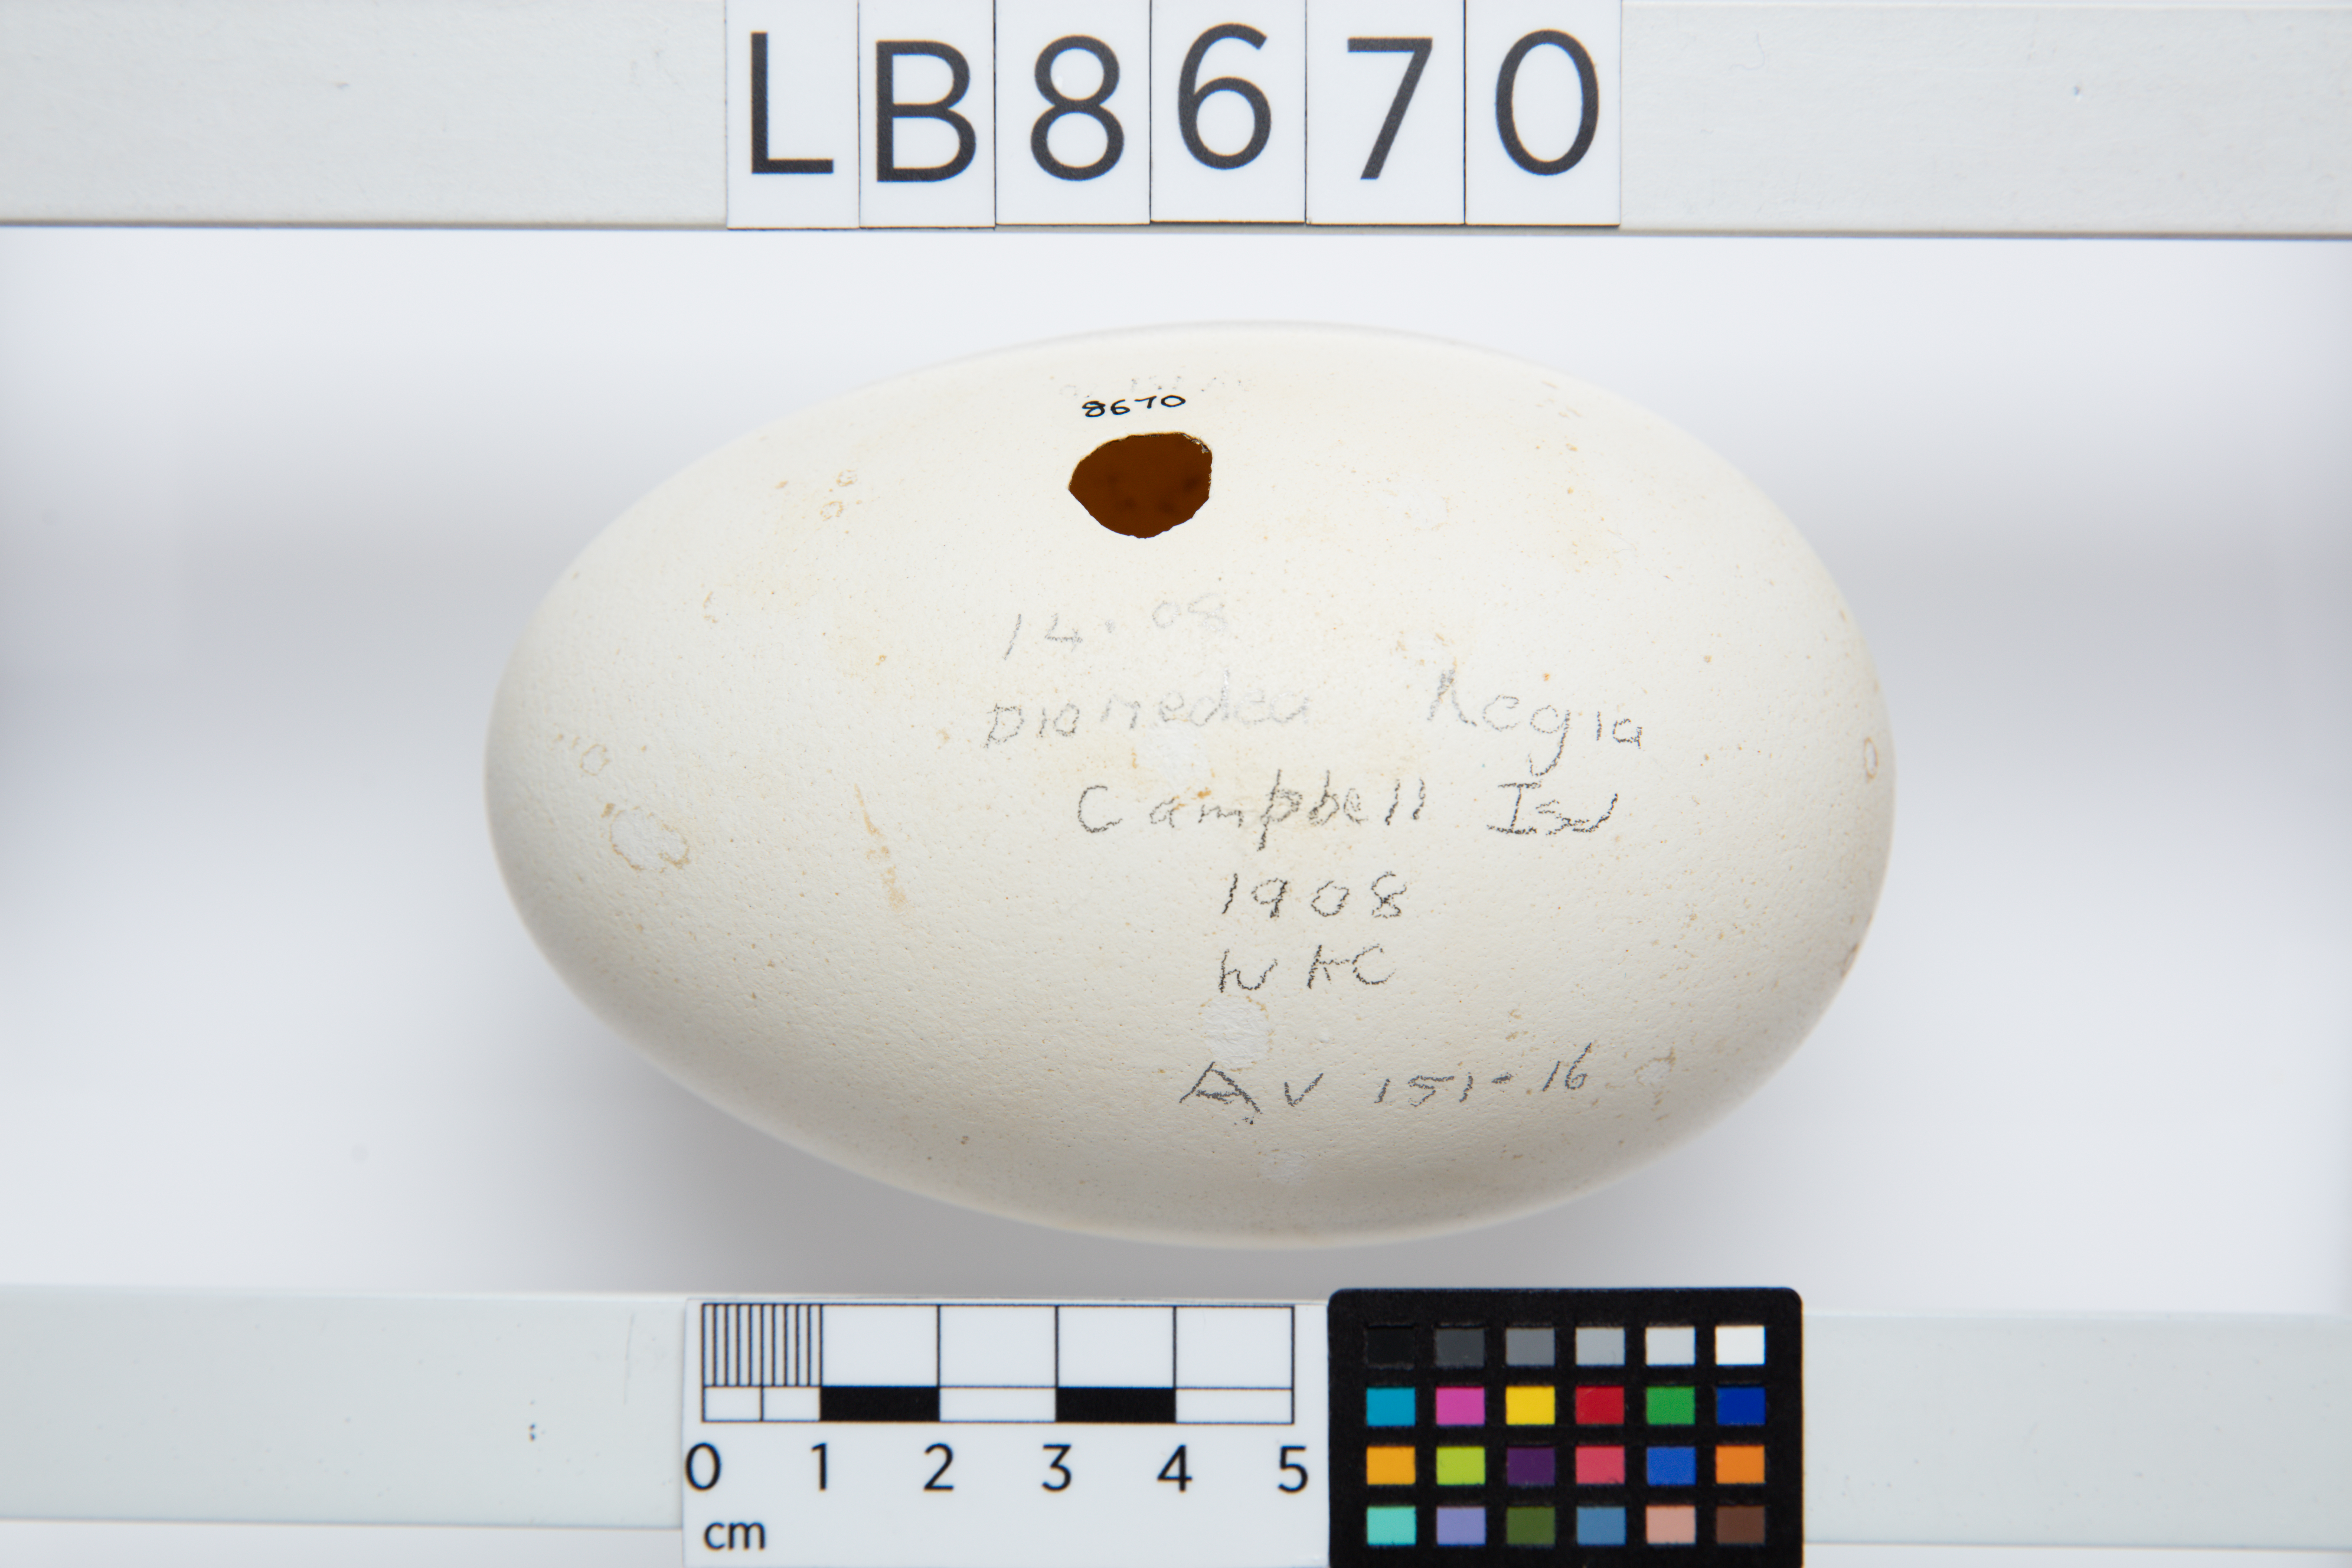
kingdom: Animalia
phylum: Chordata
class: Aves
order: Procellariiformes
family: Diomedeidae
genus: Diomedea
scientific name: Diomedea epomophora
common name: Southern royal albatross
